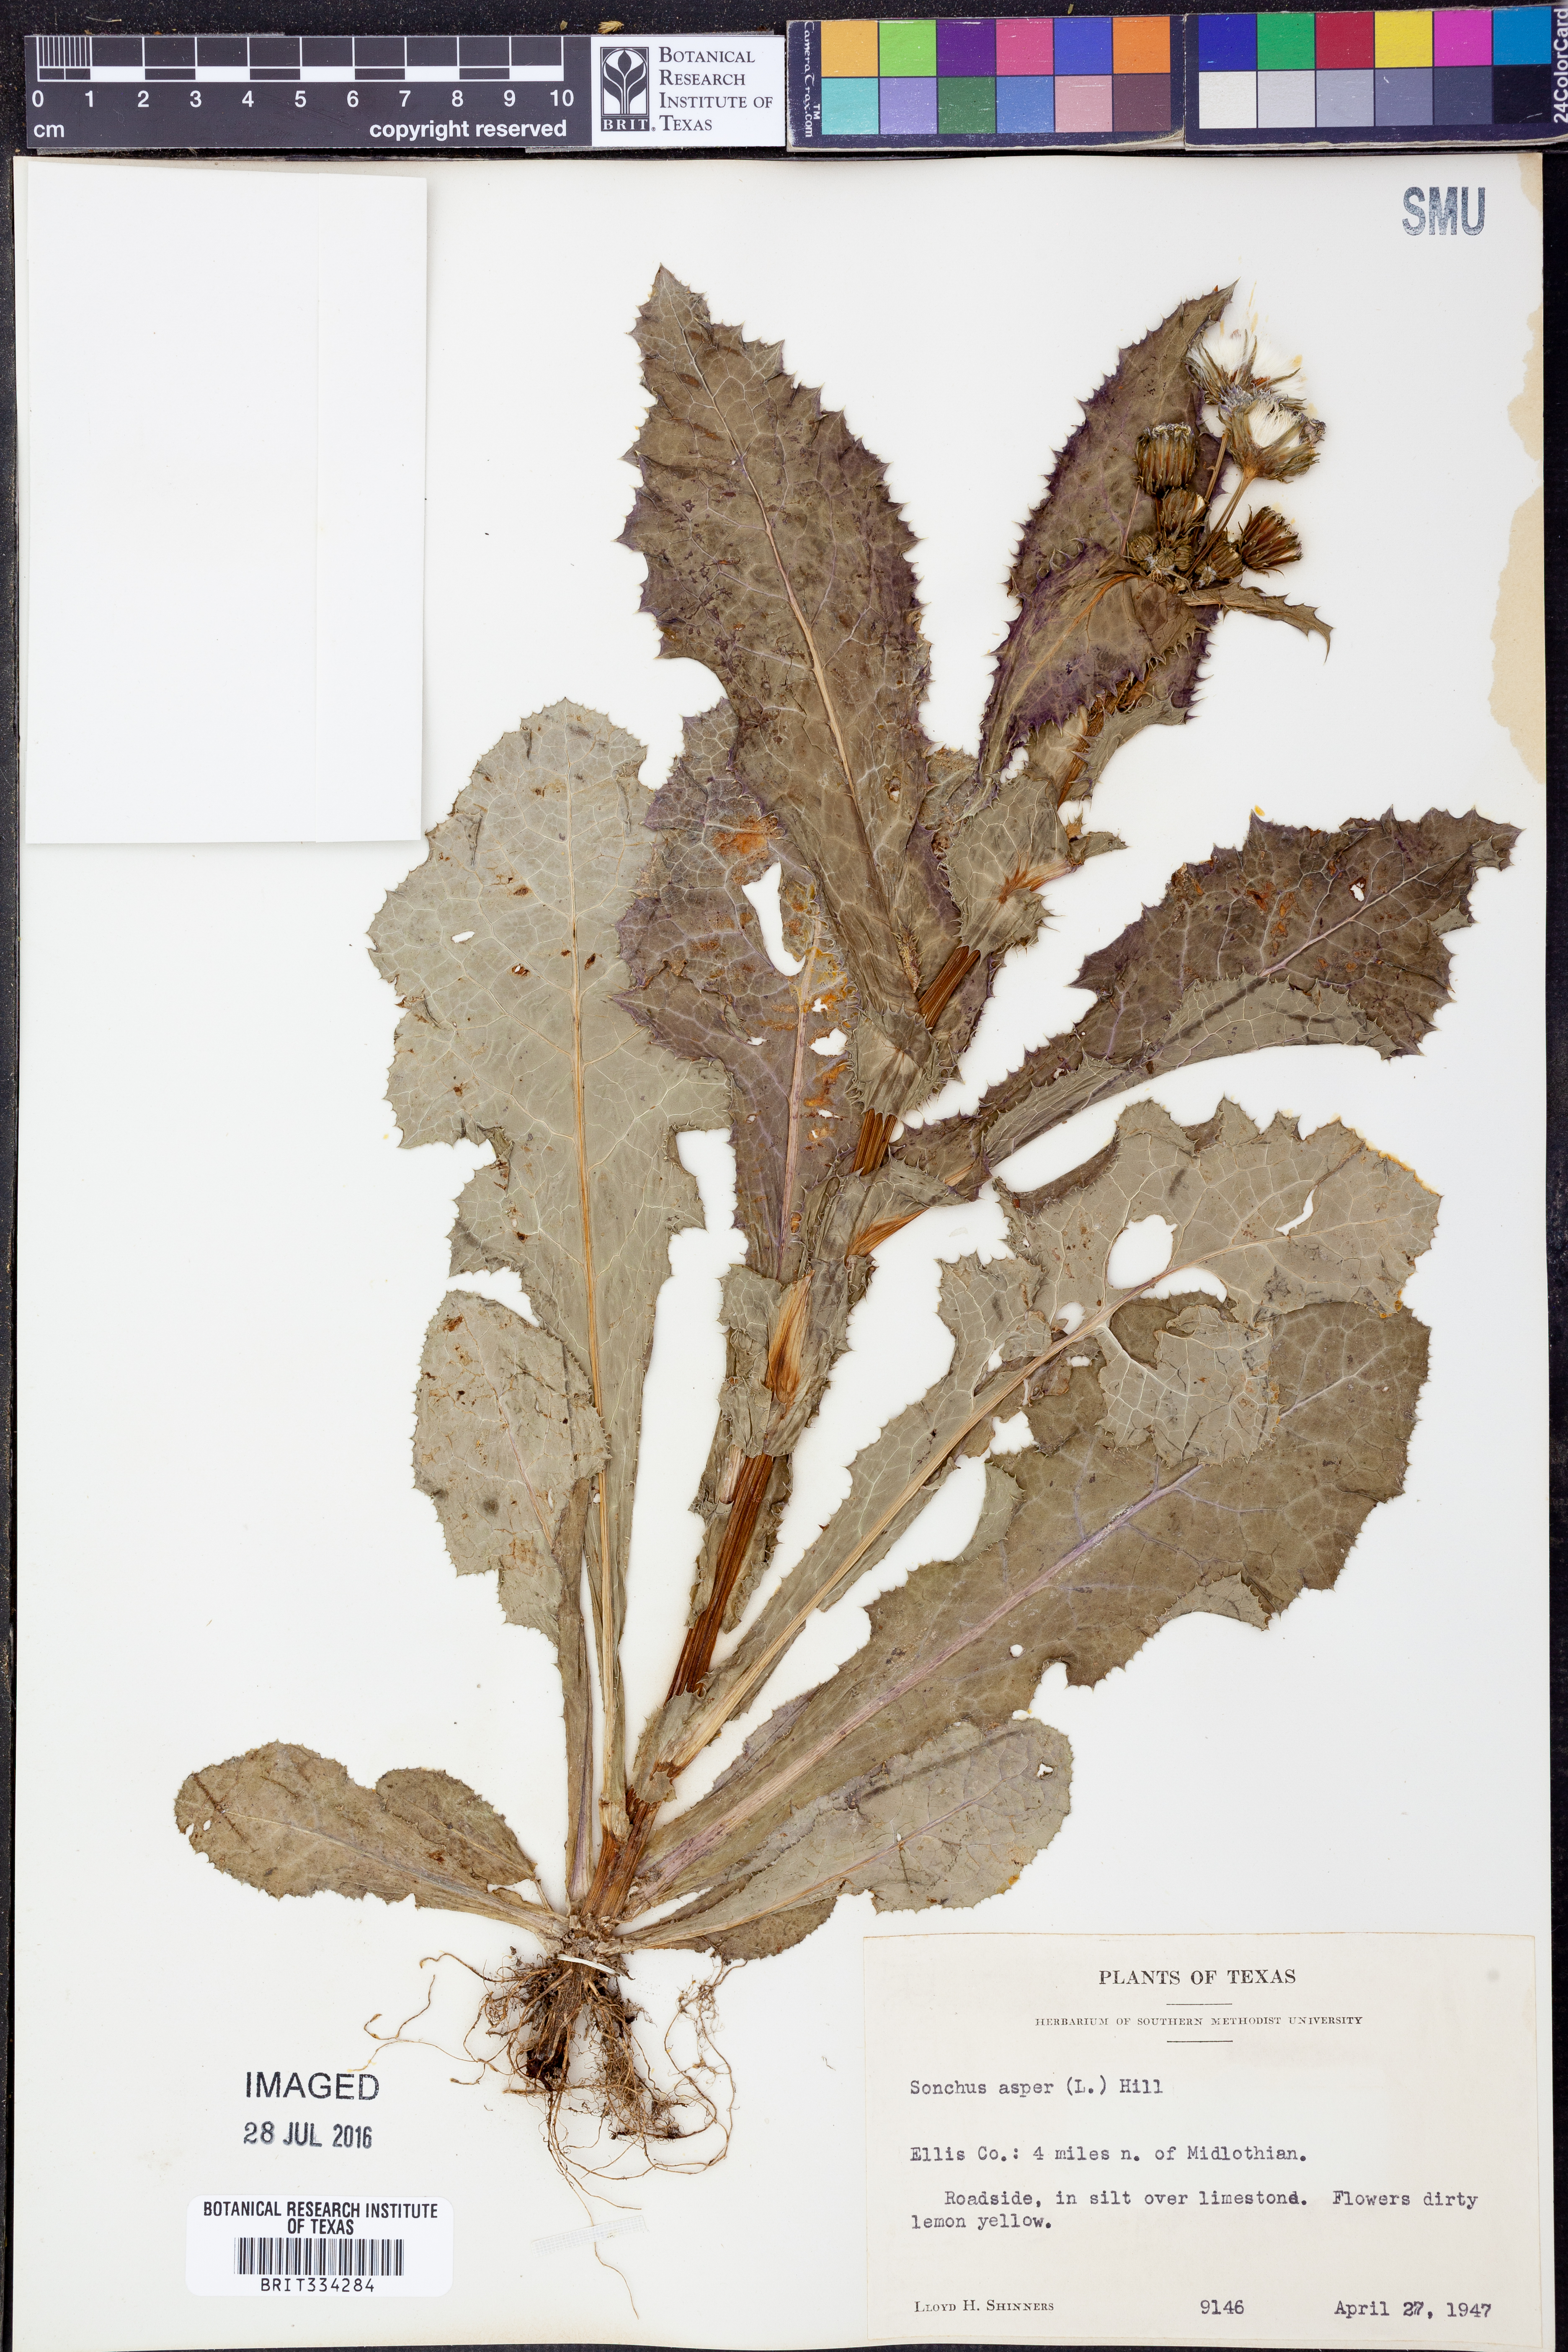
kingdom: Plantae
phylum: Tracheophyta
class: Magnoliopsida
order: Asterales
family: Asteraceae
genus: Sonchus
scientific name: Sonchus asper
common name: Prickly sow-thistle
